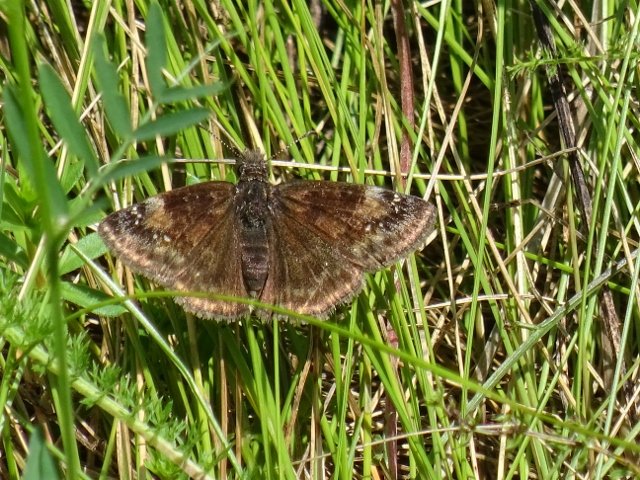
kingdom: Animalia
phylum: Arthropoda
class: Insecta
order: Lepidoptera
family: Hesperiidae
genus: Gesta
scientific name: Gesta
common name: Wild Indigo Duskywing
